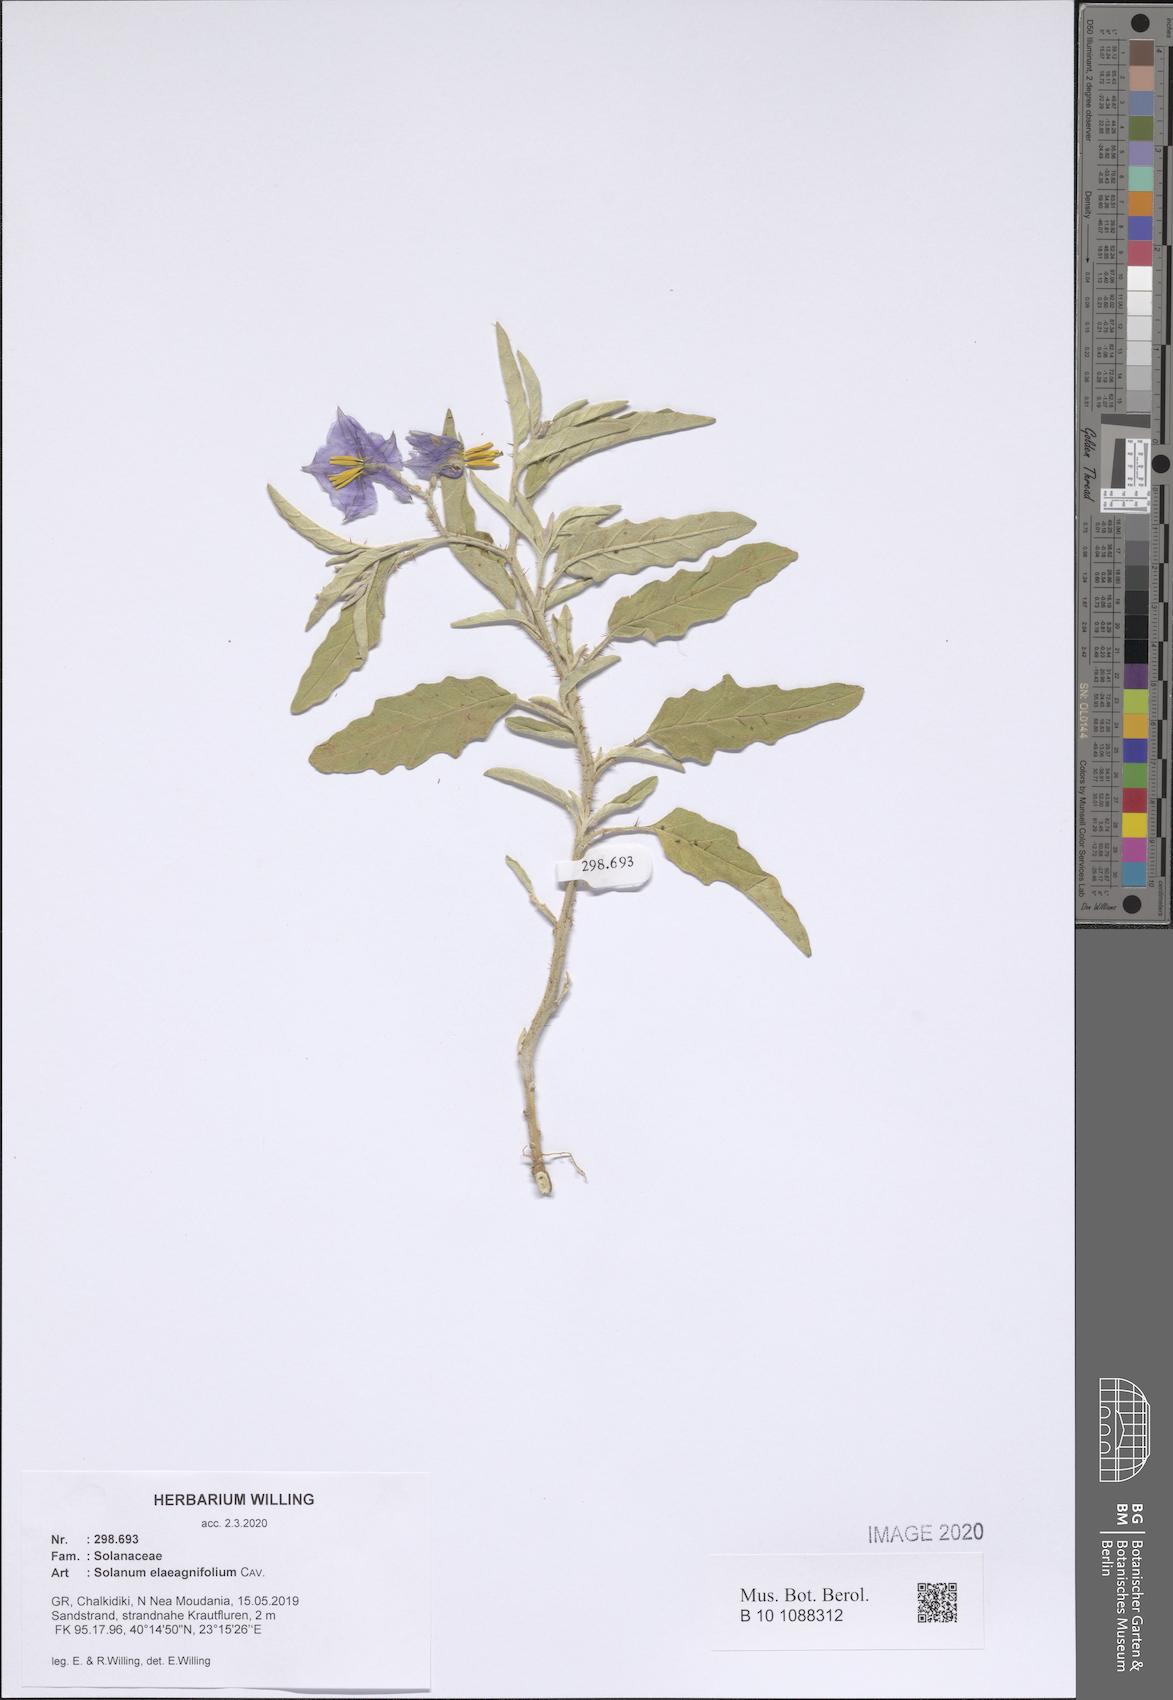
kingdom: Plantae
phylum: Tracheophyta
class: Magnoliopsida
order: Solanales
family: Solanaceae
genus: Solanum
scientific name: Solanum elaeagnifolium
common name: Silverleaf nightshade
